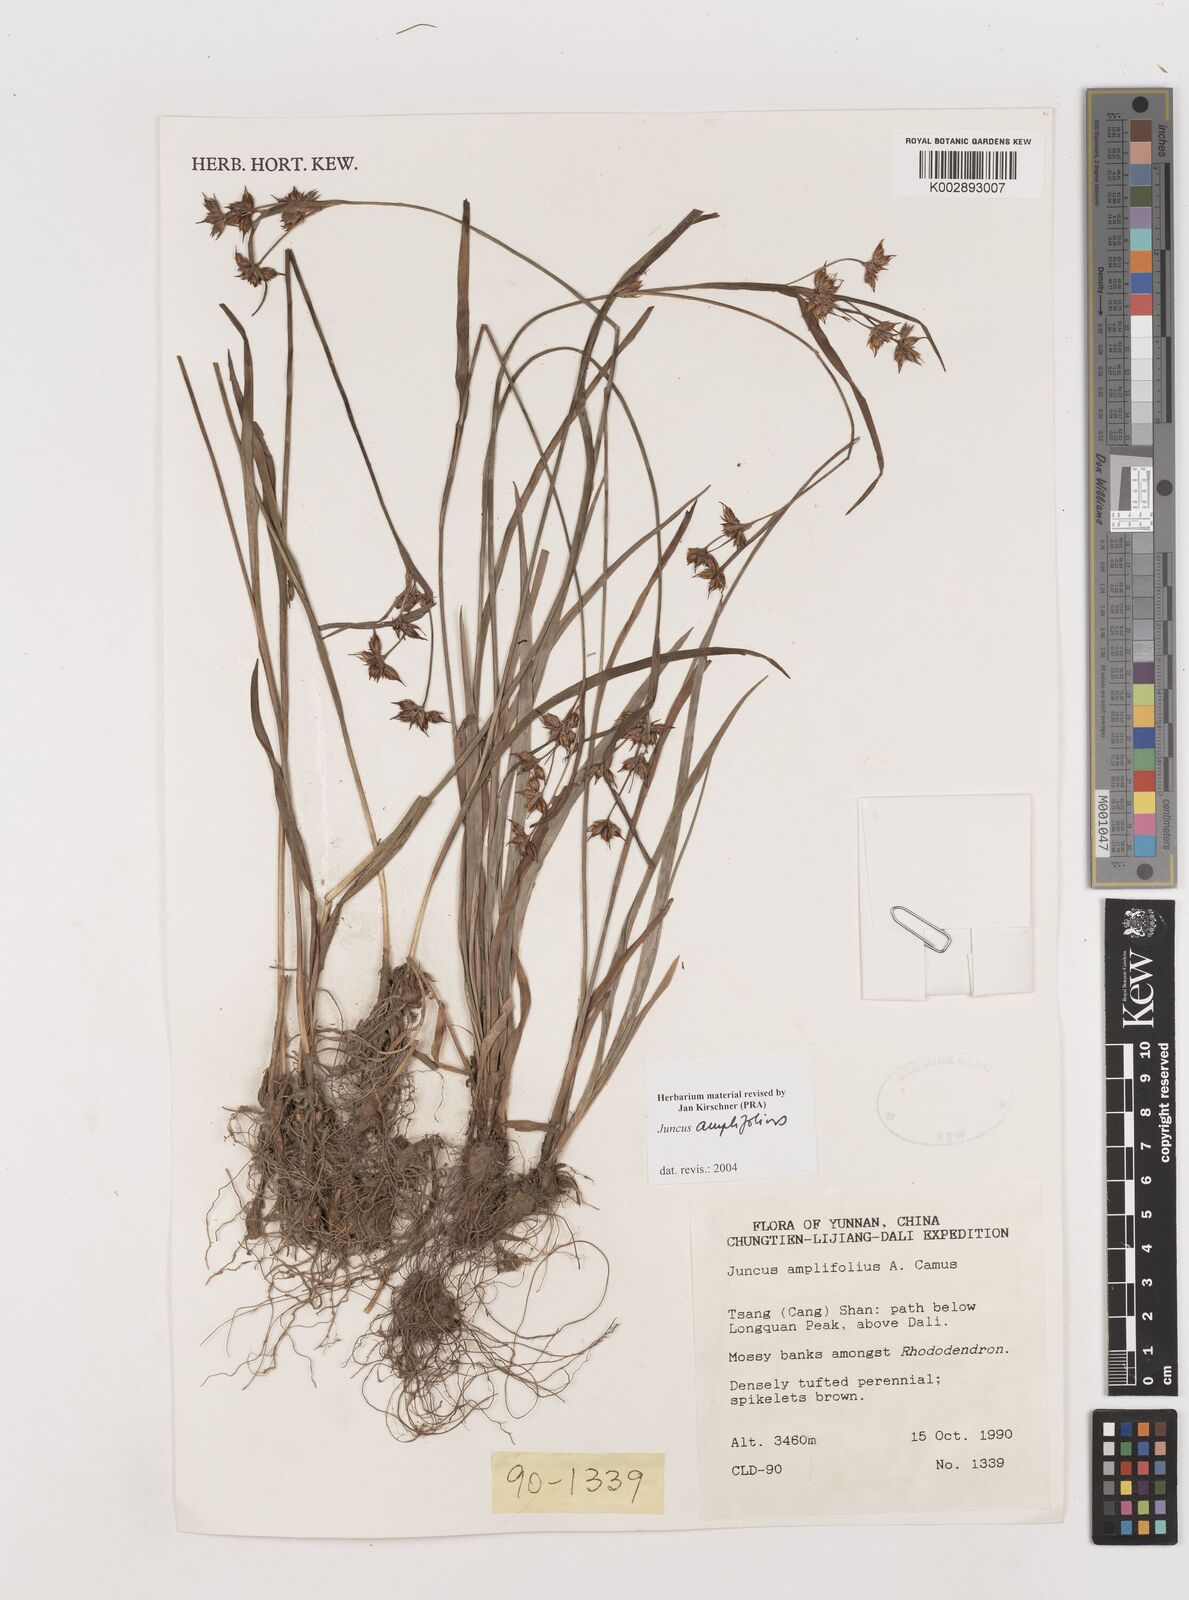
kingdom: Plantae
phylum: Tracheophyta
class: Liliopsida
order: Poales
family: Juncaceae
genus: Juncus
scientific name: Juncus amplifolius
